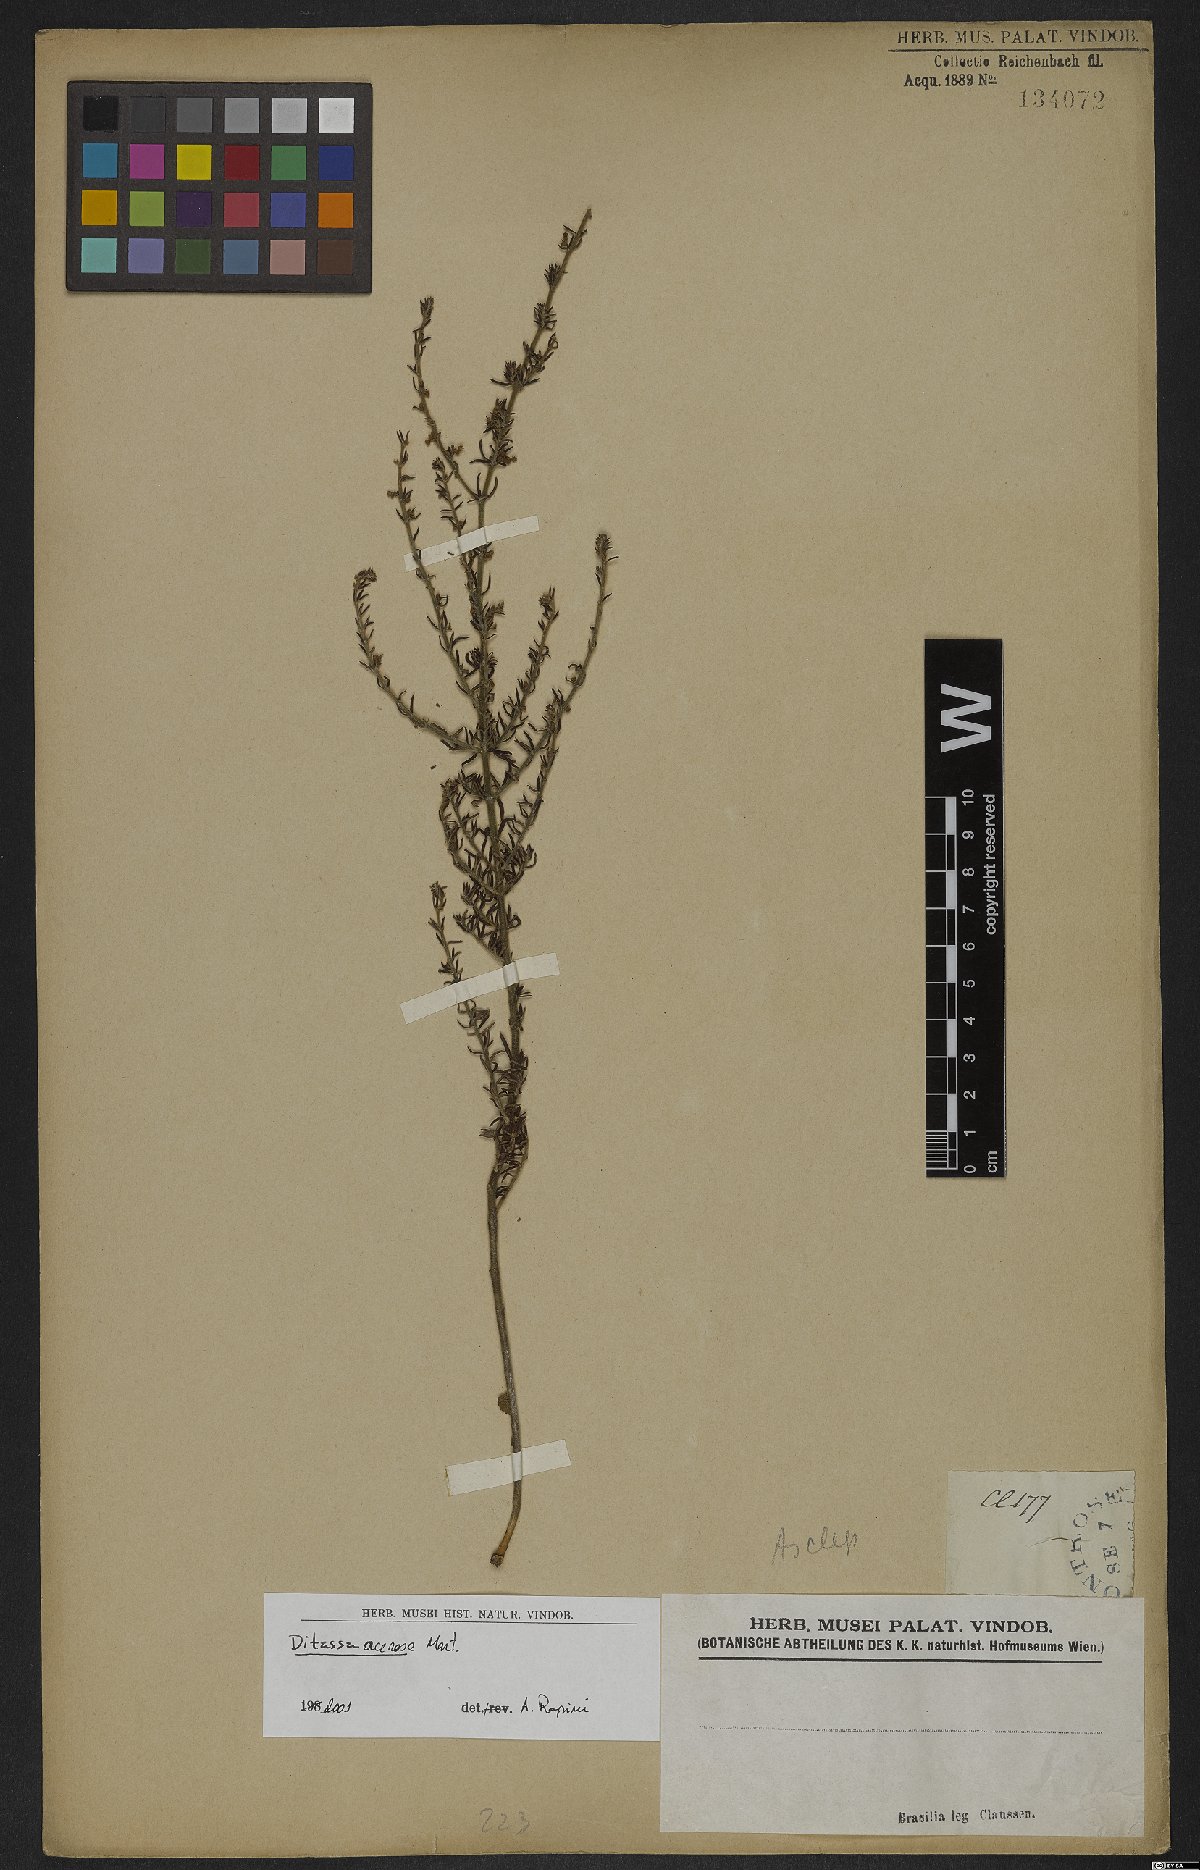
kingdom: Plantae
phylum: Tracheophyta
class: Magnoliopsida
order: Gentianales
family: Apocynaceae
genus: Minaria
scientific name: Minaria acerosa
